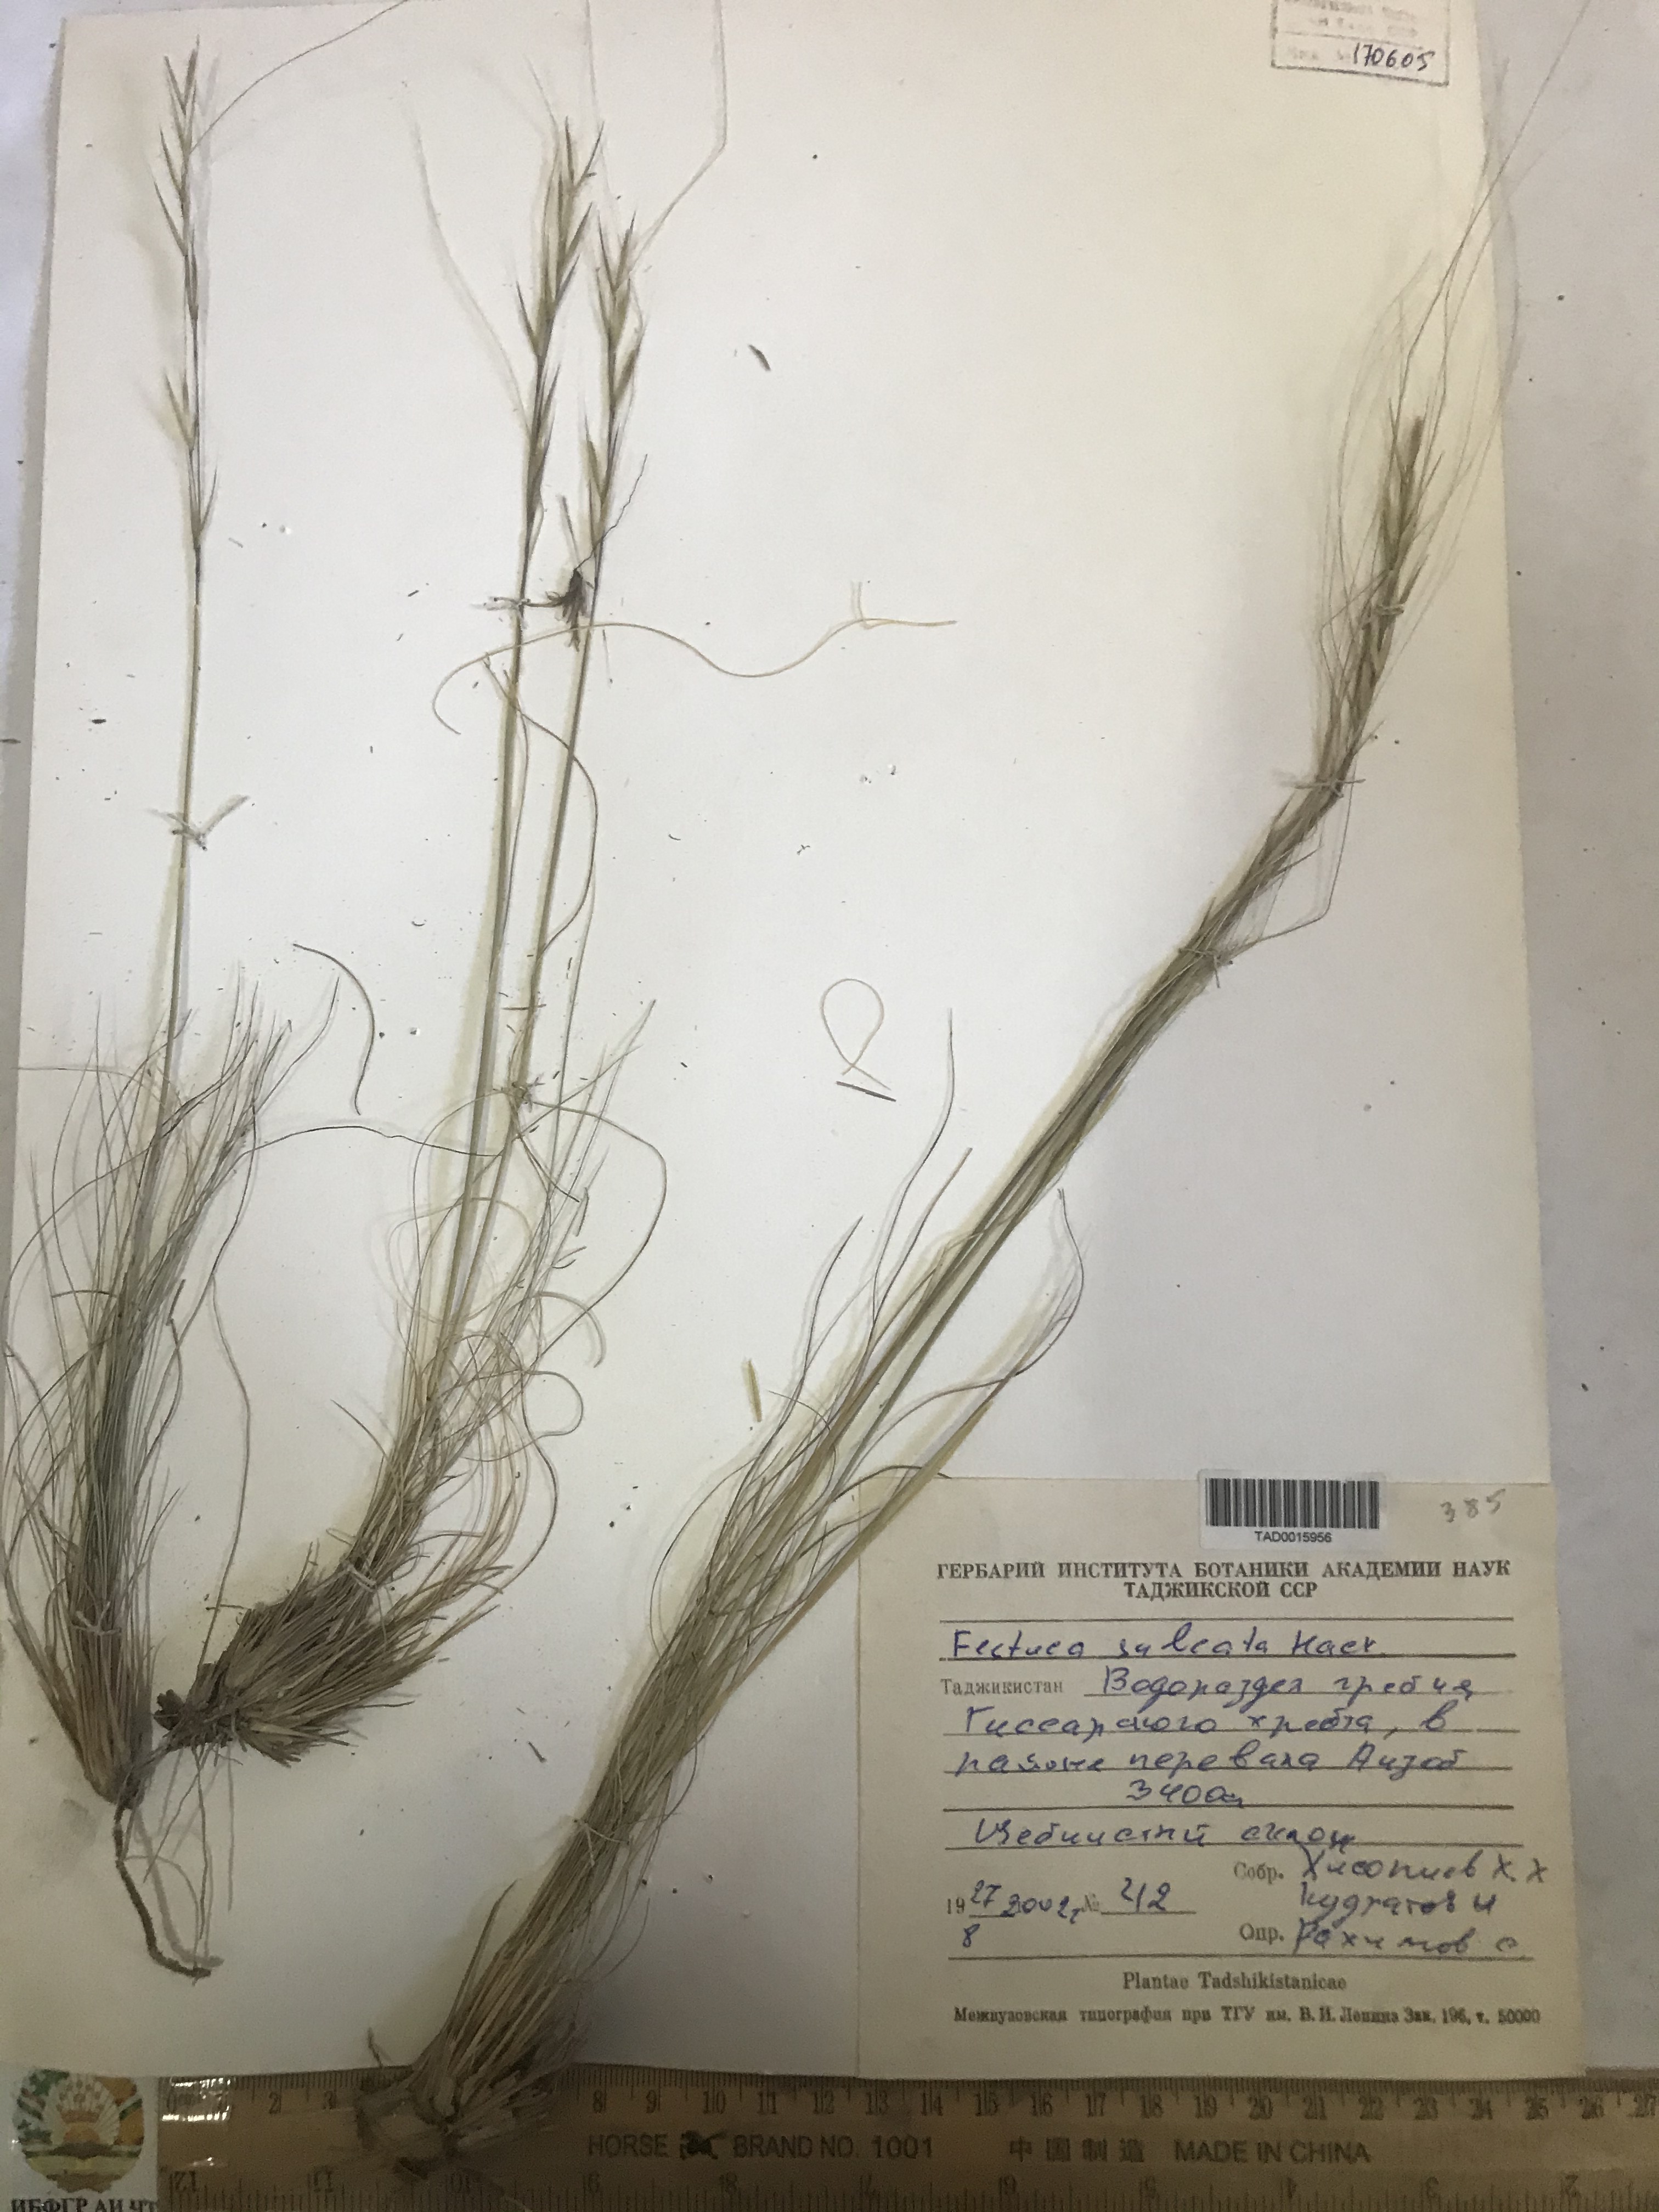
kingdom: Plantae
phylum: Tracheophyta
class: Liliopsida
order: Poales
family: Poaceae
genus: Festuca
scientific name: Festuca sulcata
